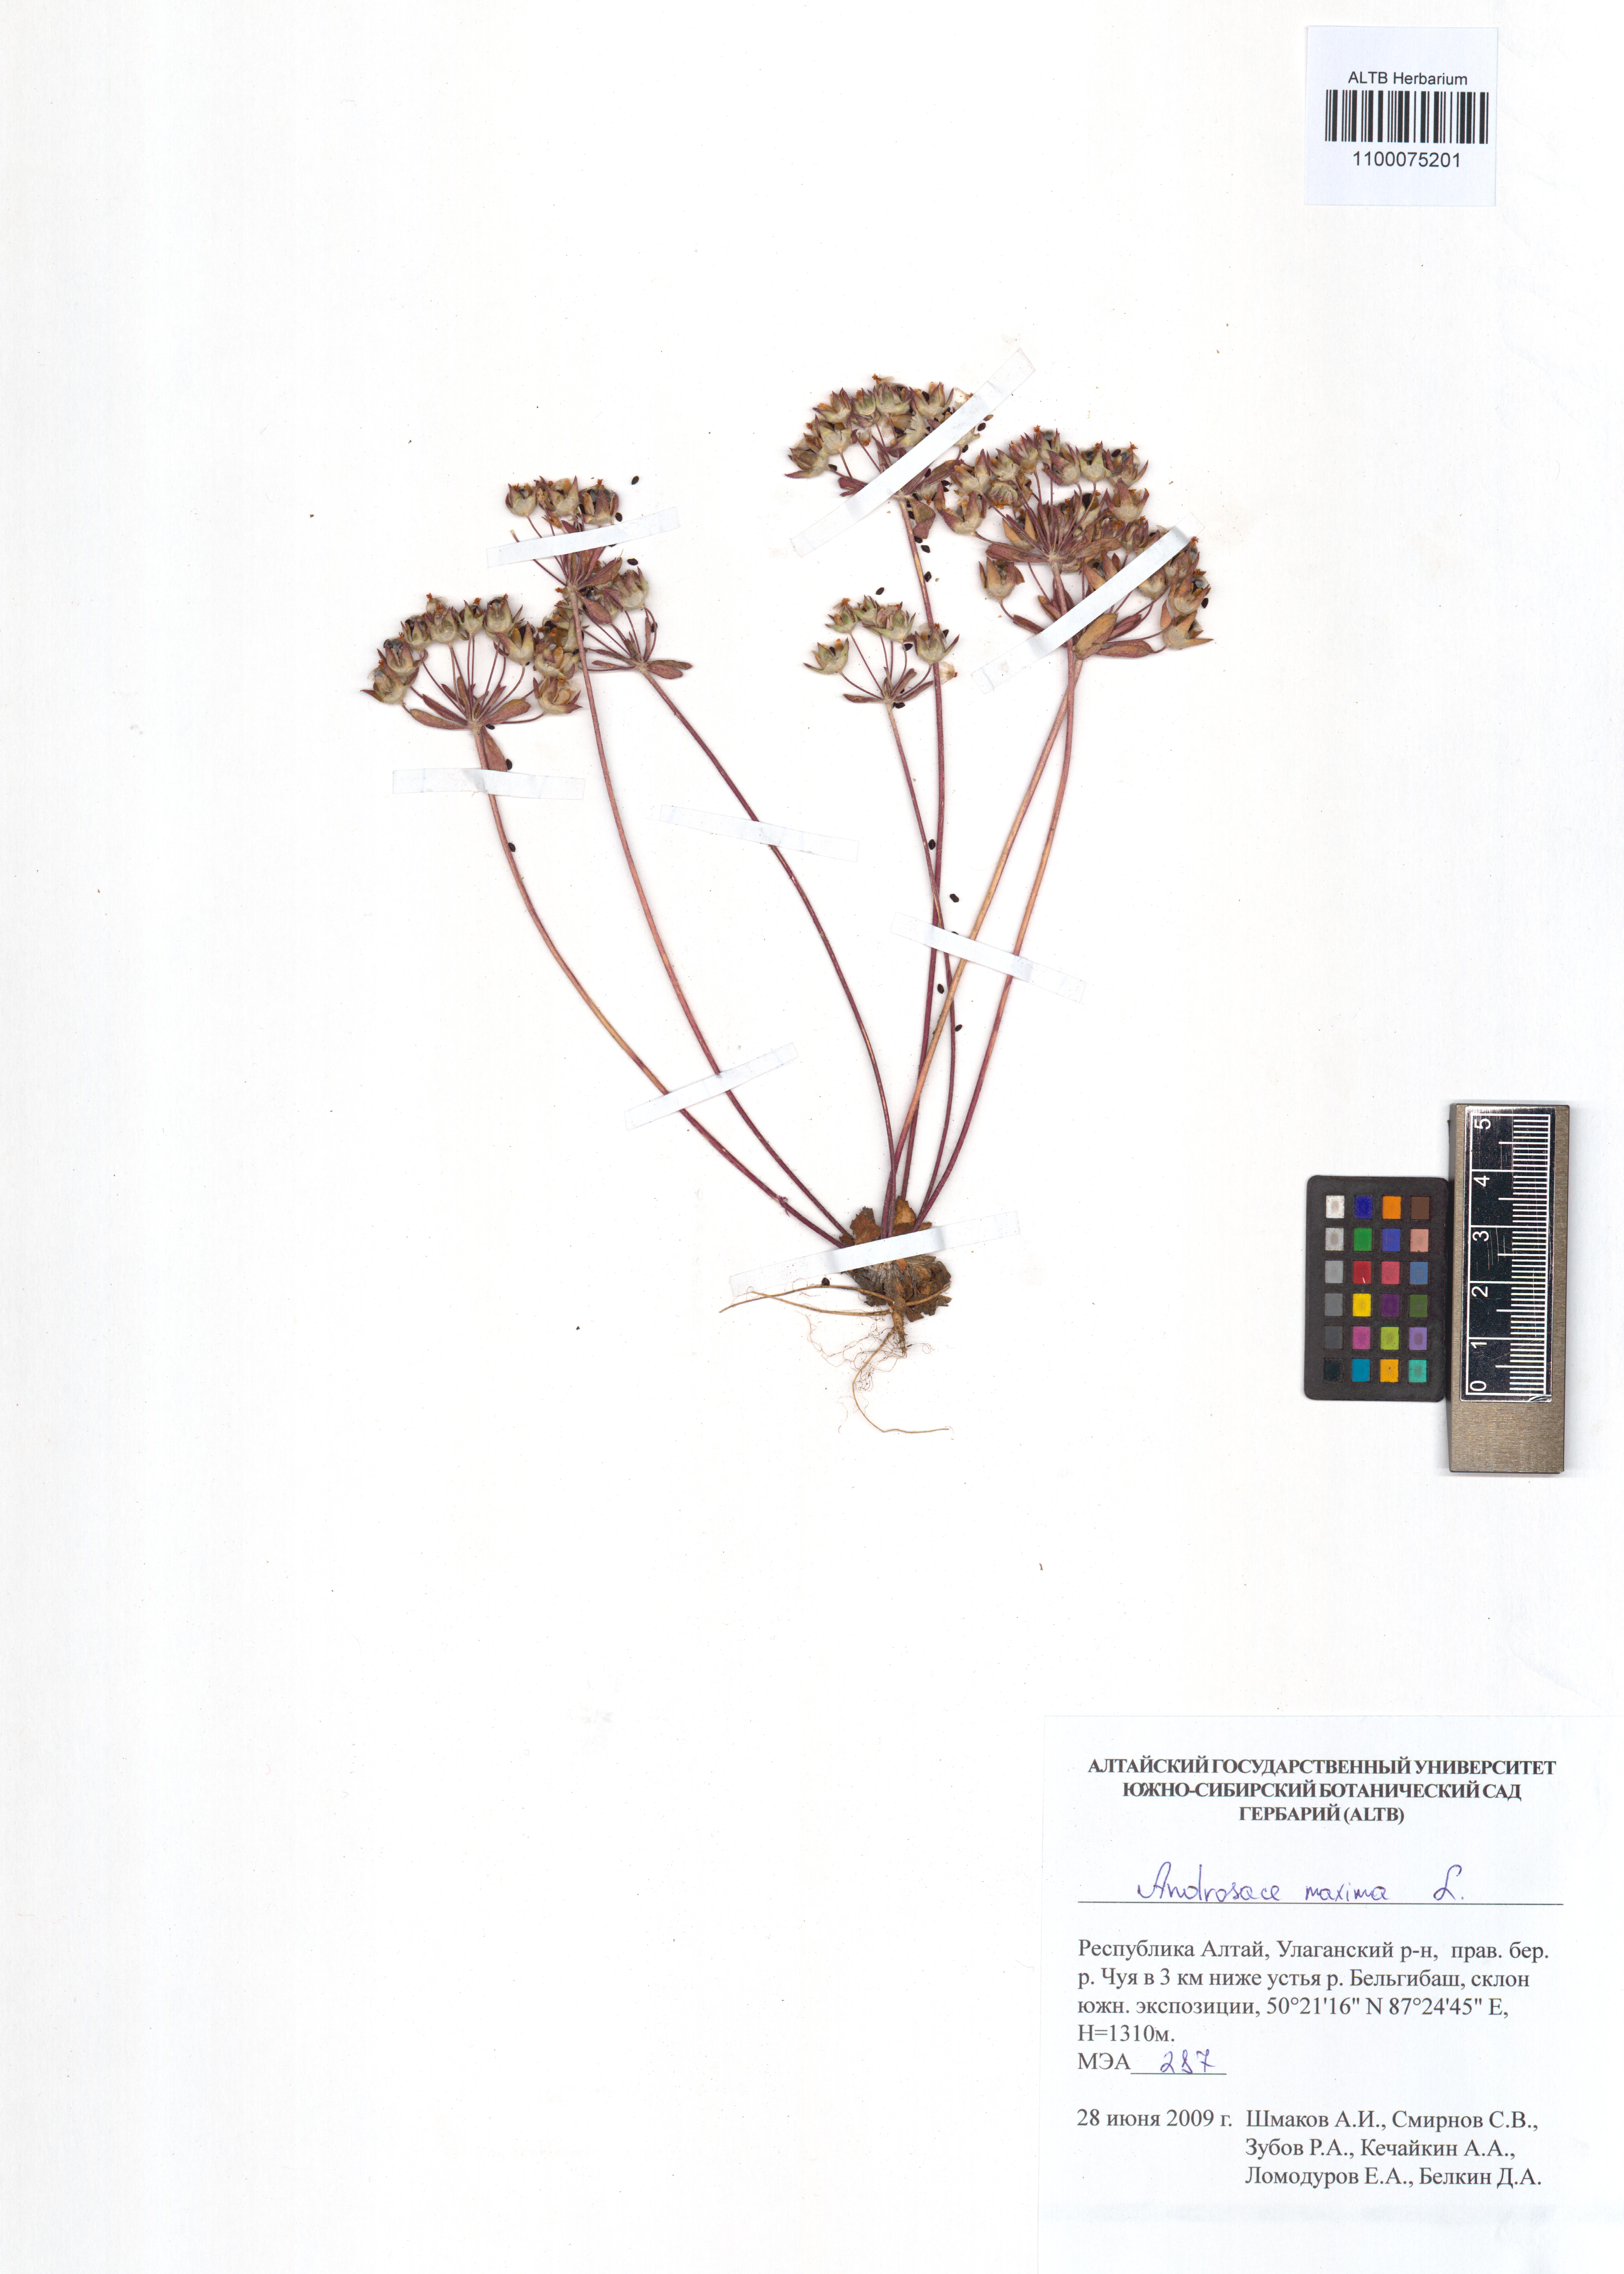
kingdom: Plantae
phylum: Tracheophyta
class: Magnoliopsida
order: Ericales
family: Primulaceae
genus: Androsace
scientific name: Androsace maxima
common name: Annual androsace
